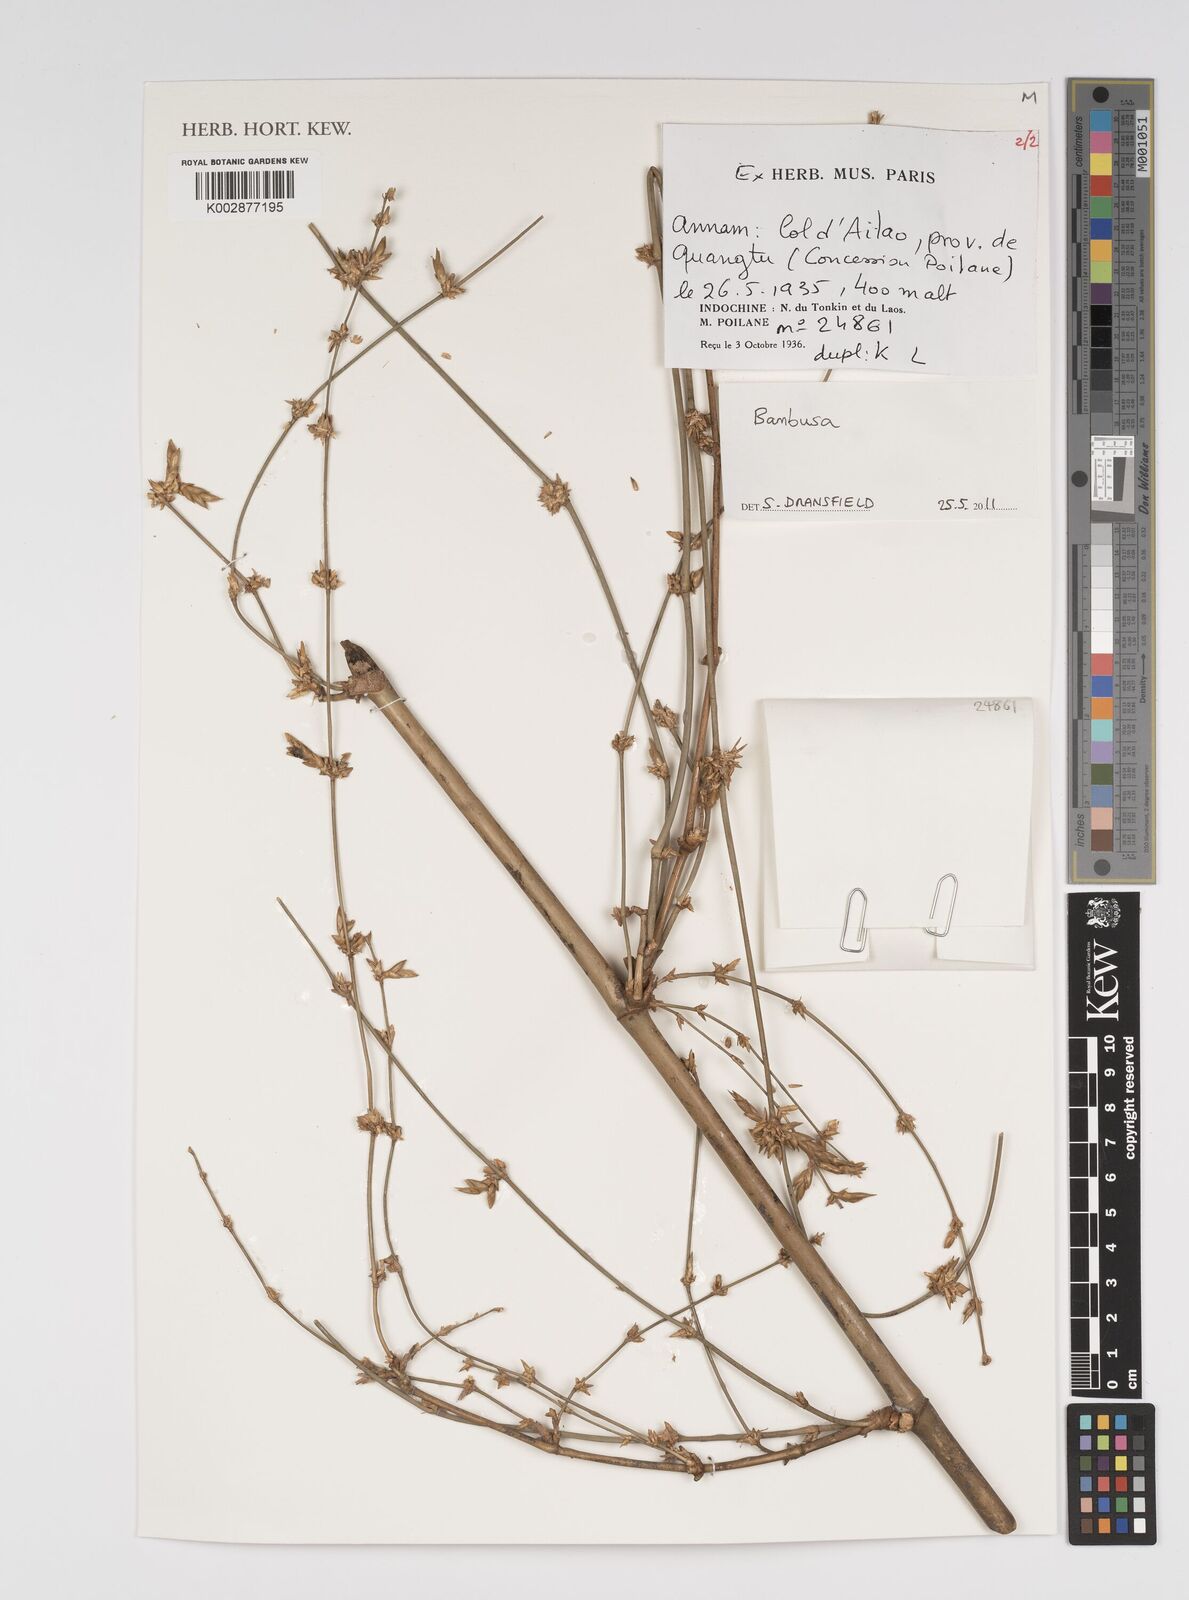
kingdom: Plantae
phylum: Tracheophyta
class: Liliopsida
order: Poales
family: Poaceae
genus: Bambusa
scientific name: Bambusa
